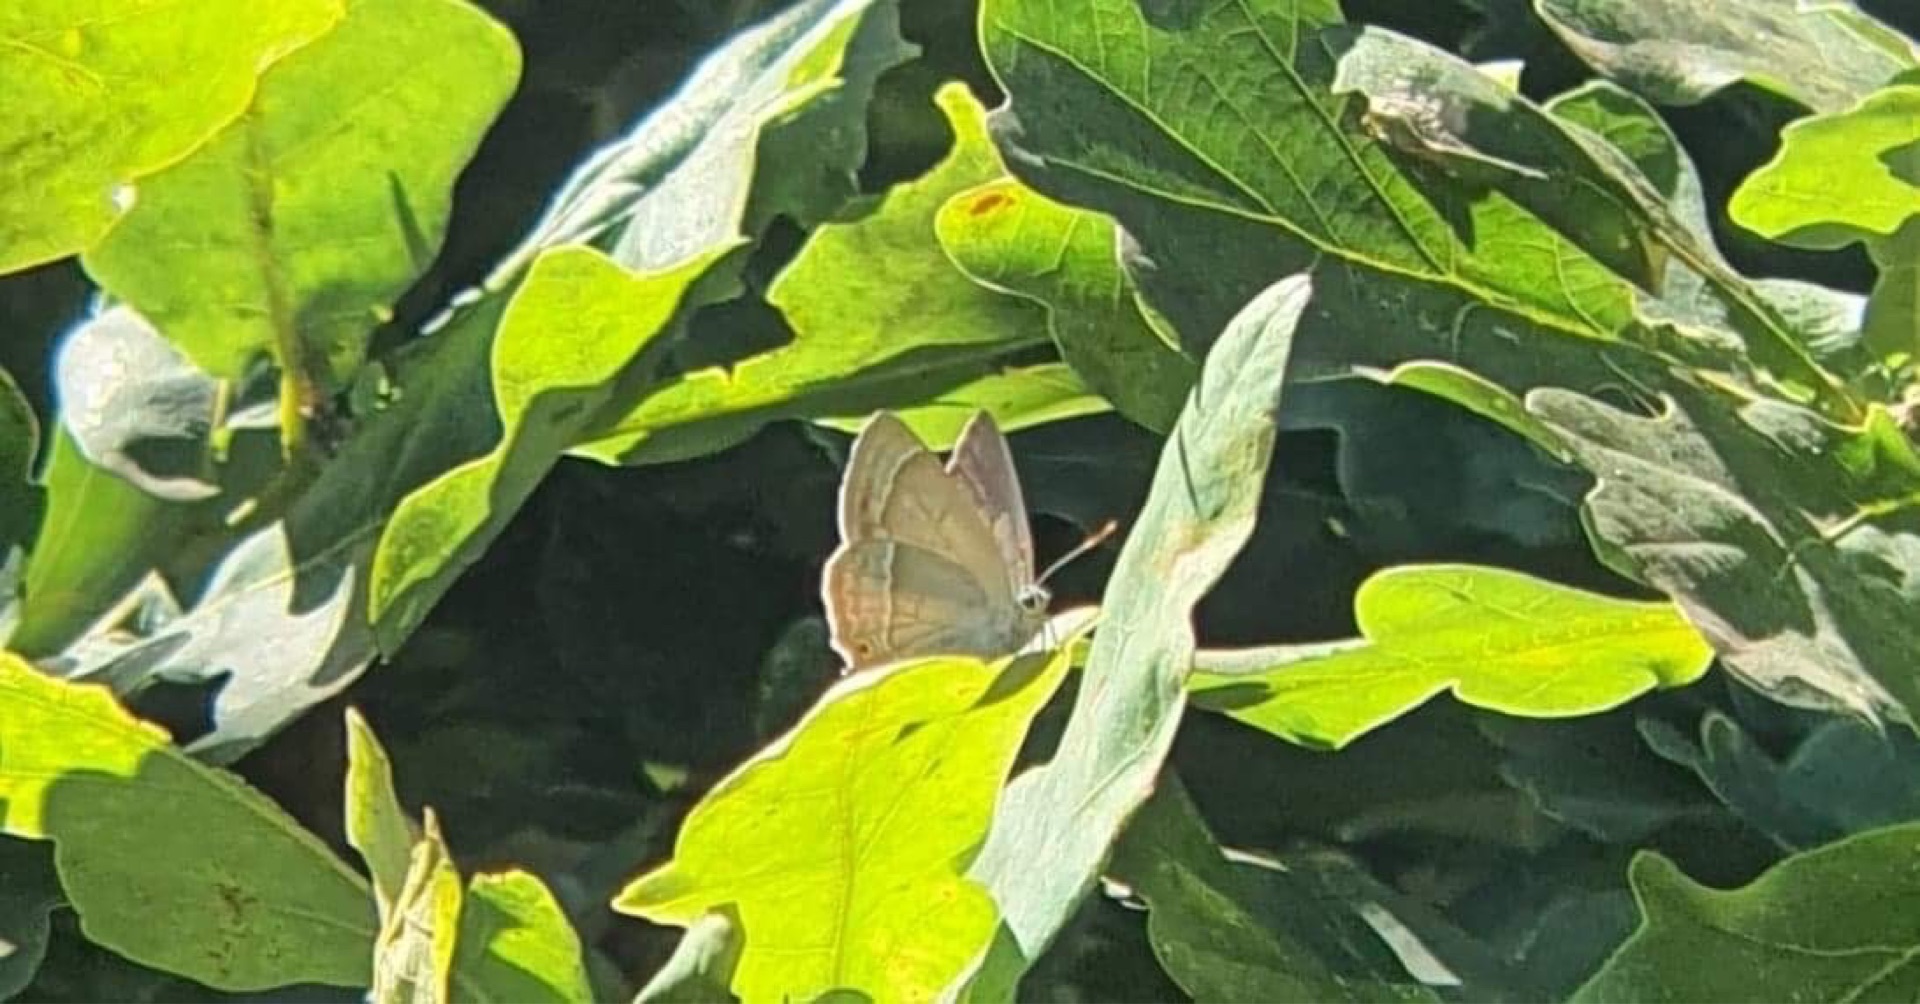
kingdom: Animalia
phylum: Arthropoda
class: Insecta
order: Lepidoptera
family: Lycaenidae
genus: Quercusia
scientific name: Quercusia quercus
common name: Blåhale
